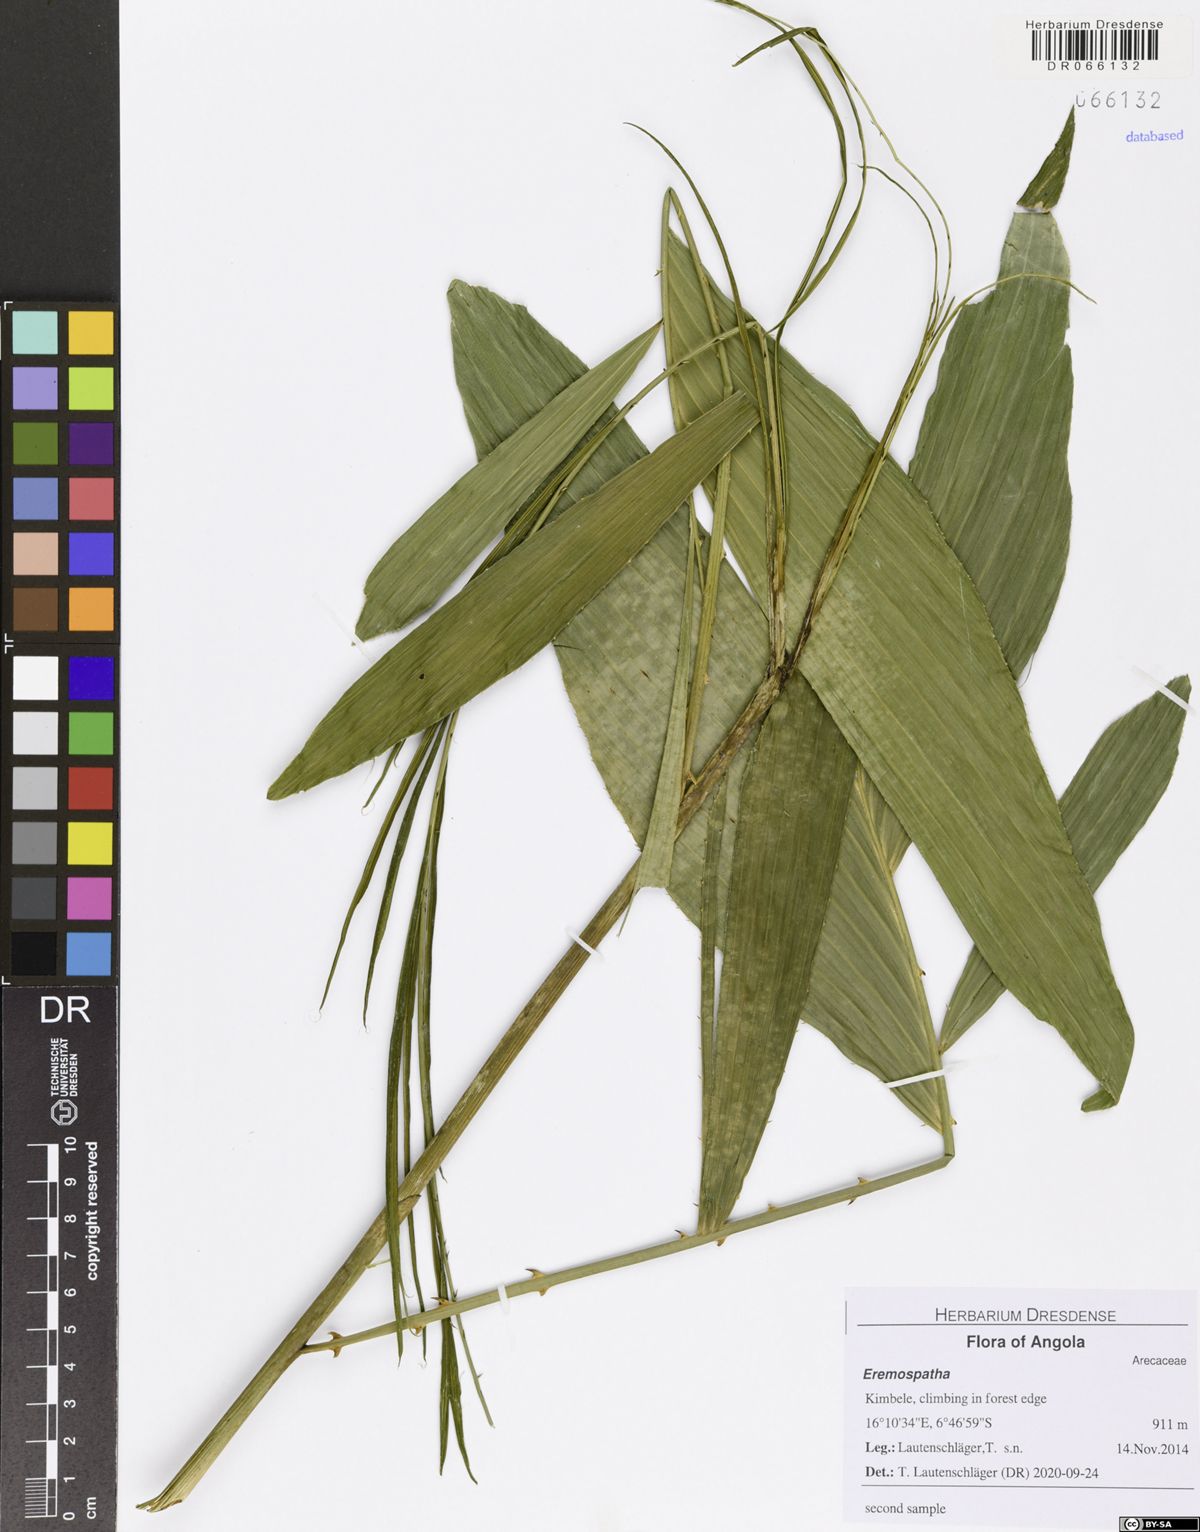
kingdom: Plantae
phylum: Tracheophyta
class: Liliopsida
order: Arecales
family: Arecaceae
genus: Eremospatha
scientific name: Eremospatha
